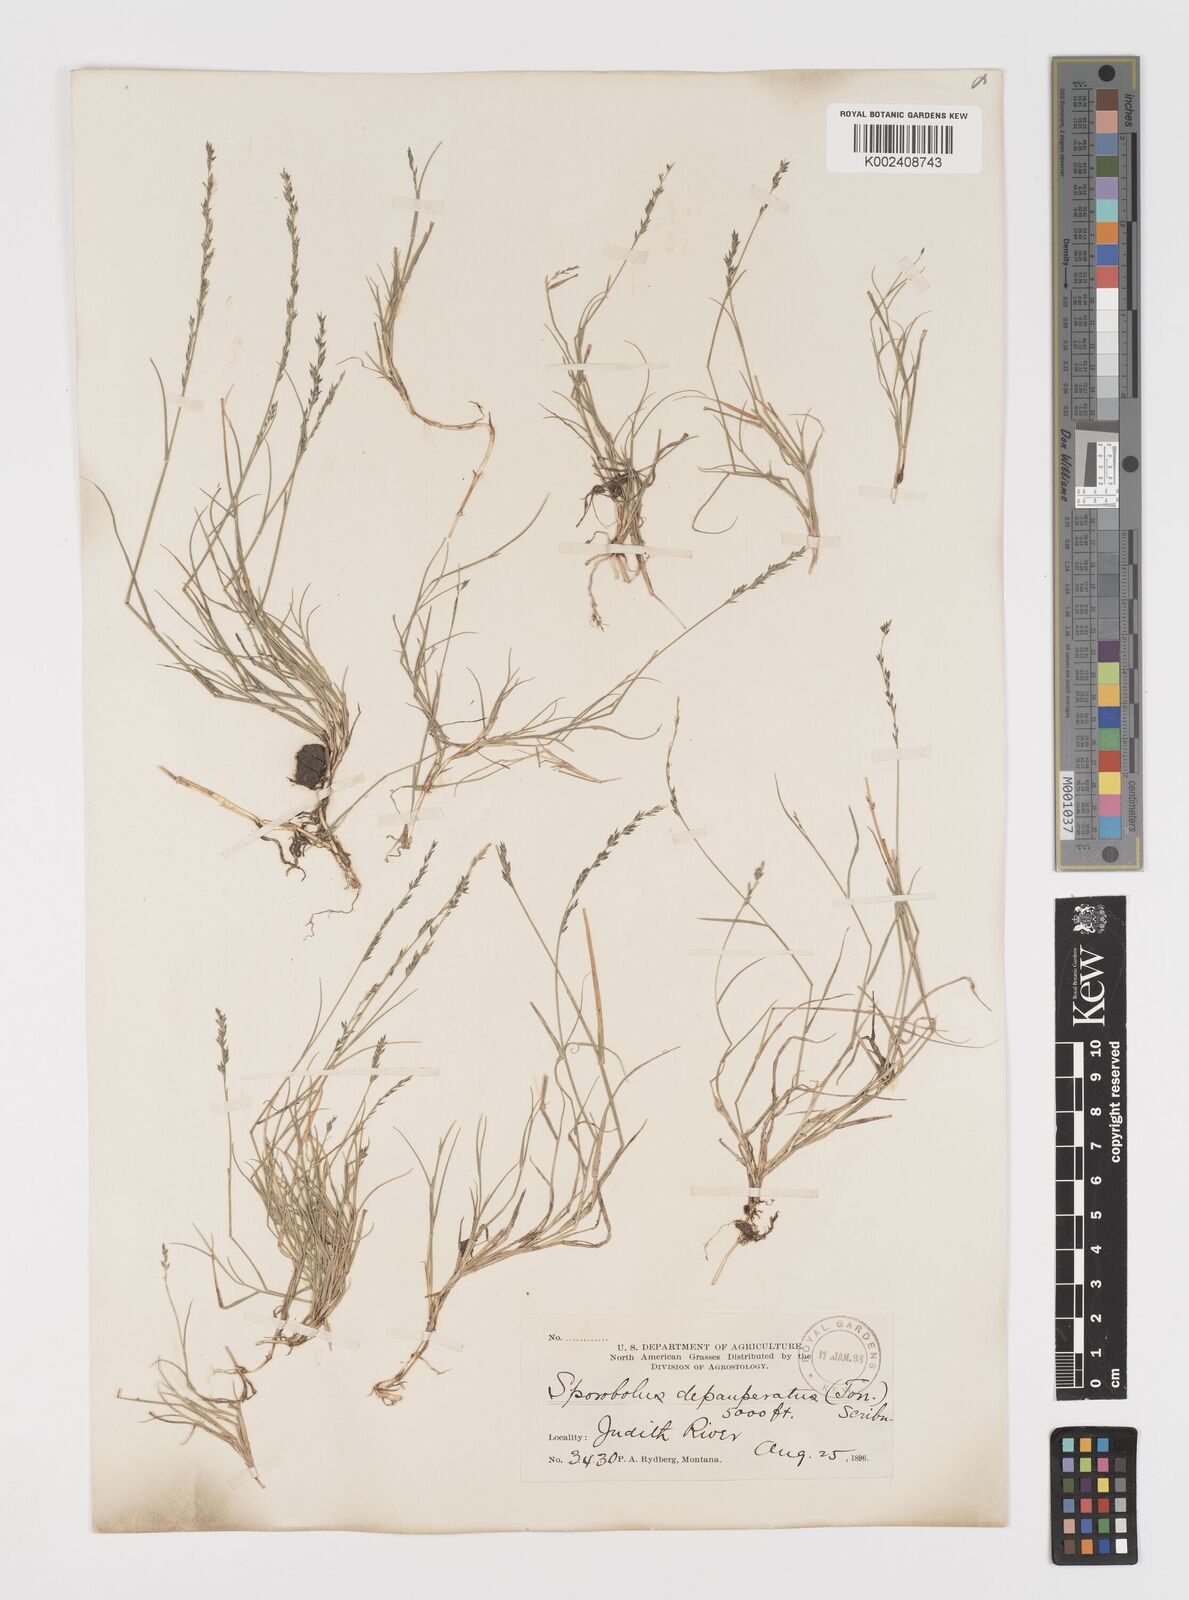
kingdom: Plantae
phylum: Tracheophyta
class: Liliopsida
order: Poales
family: Poaceae
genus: Muhlenbergia
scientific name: Muhlenbergia richardsonis
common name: Mat muhly
